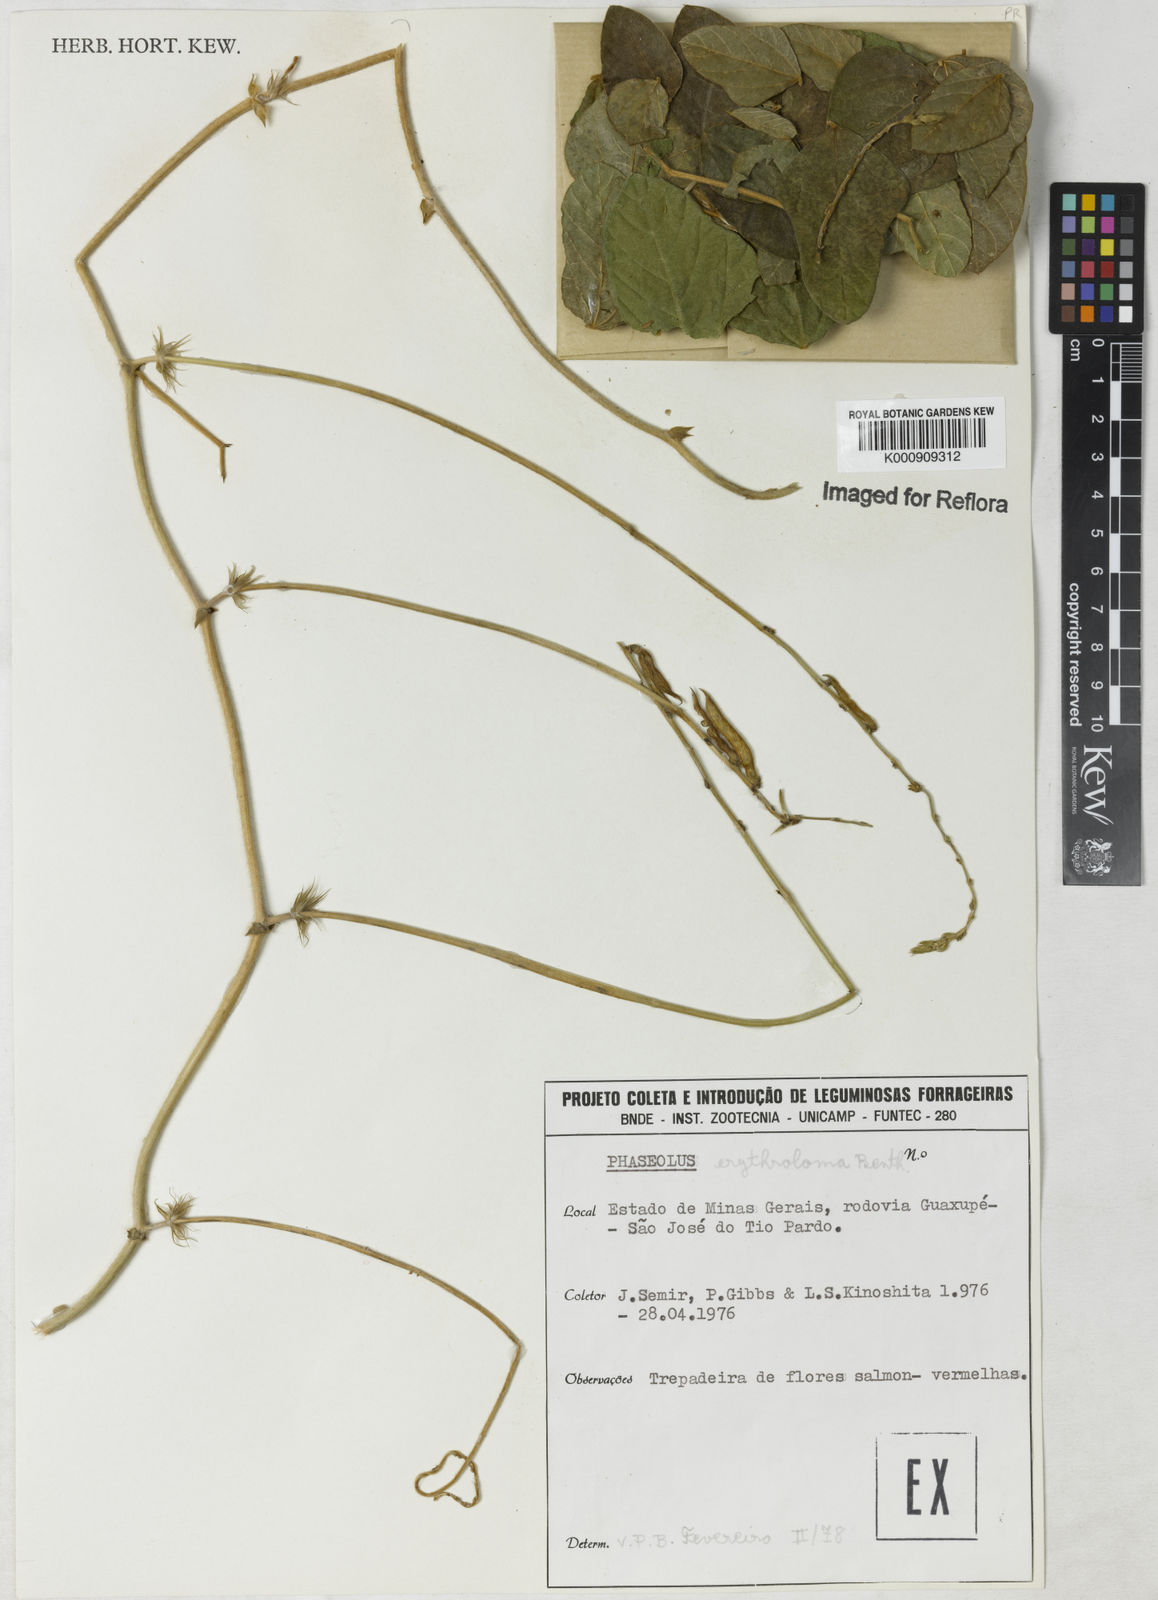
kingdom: Plantae
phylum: Tracheophyta
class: Magnoliopsida
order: Fabales
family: Fabaceae
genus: Macroptilium
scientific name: Macroptilium erythroloma
